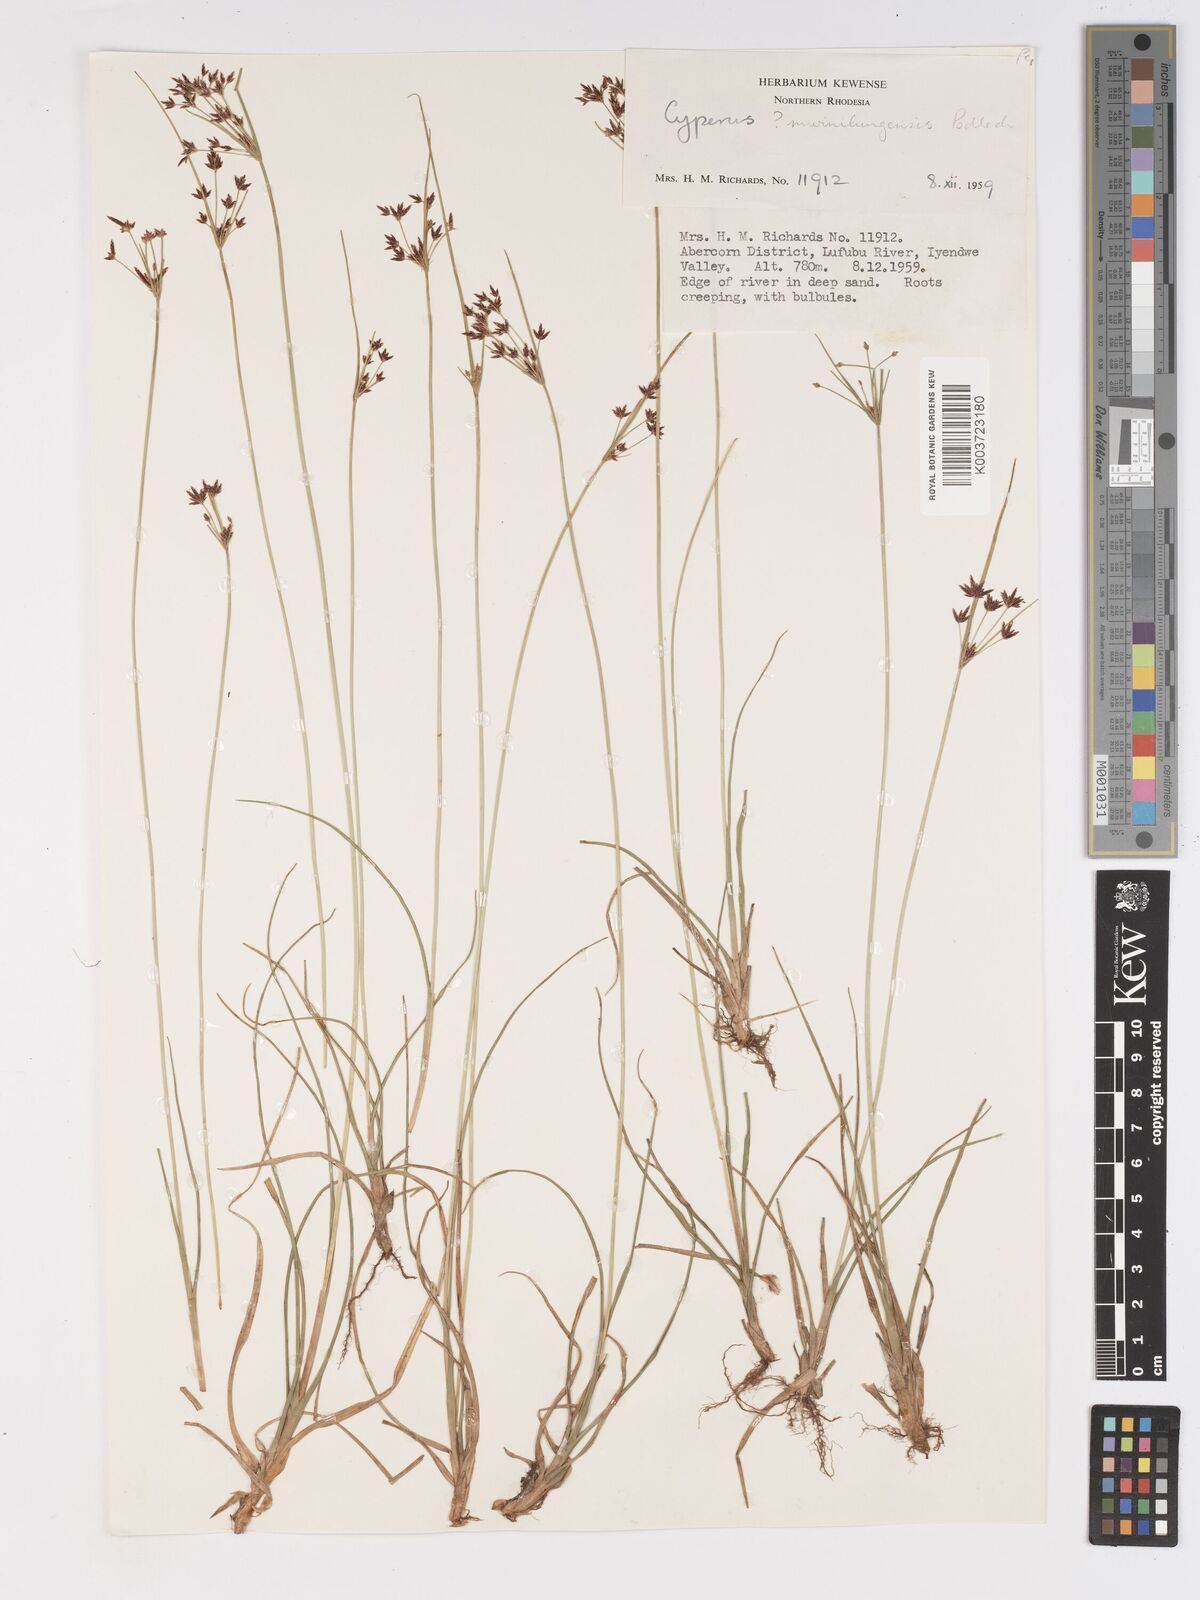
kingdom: Plantae
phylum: Tracheophyta
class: Liliopsida
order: Poales
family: Cyperaceae
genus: Cyperus
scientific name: Cyperus mwinilungensis
